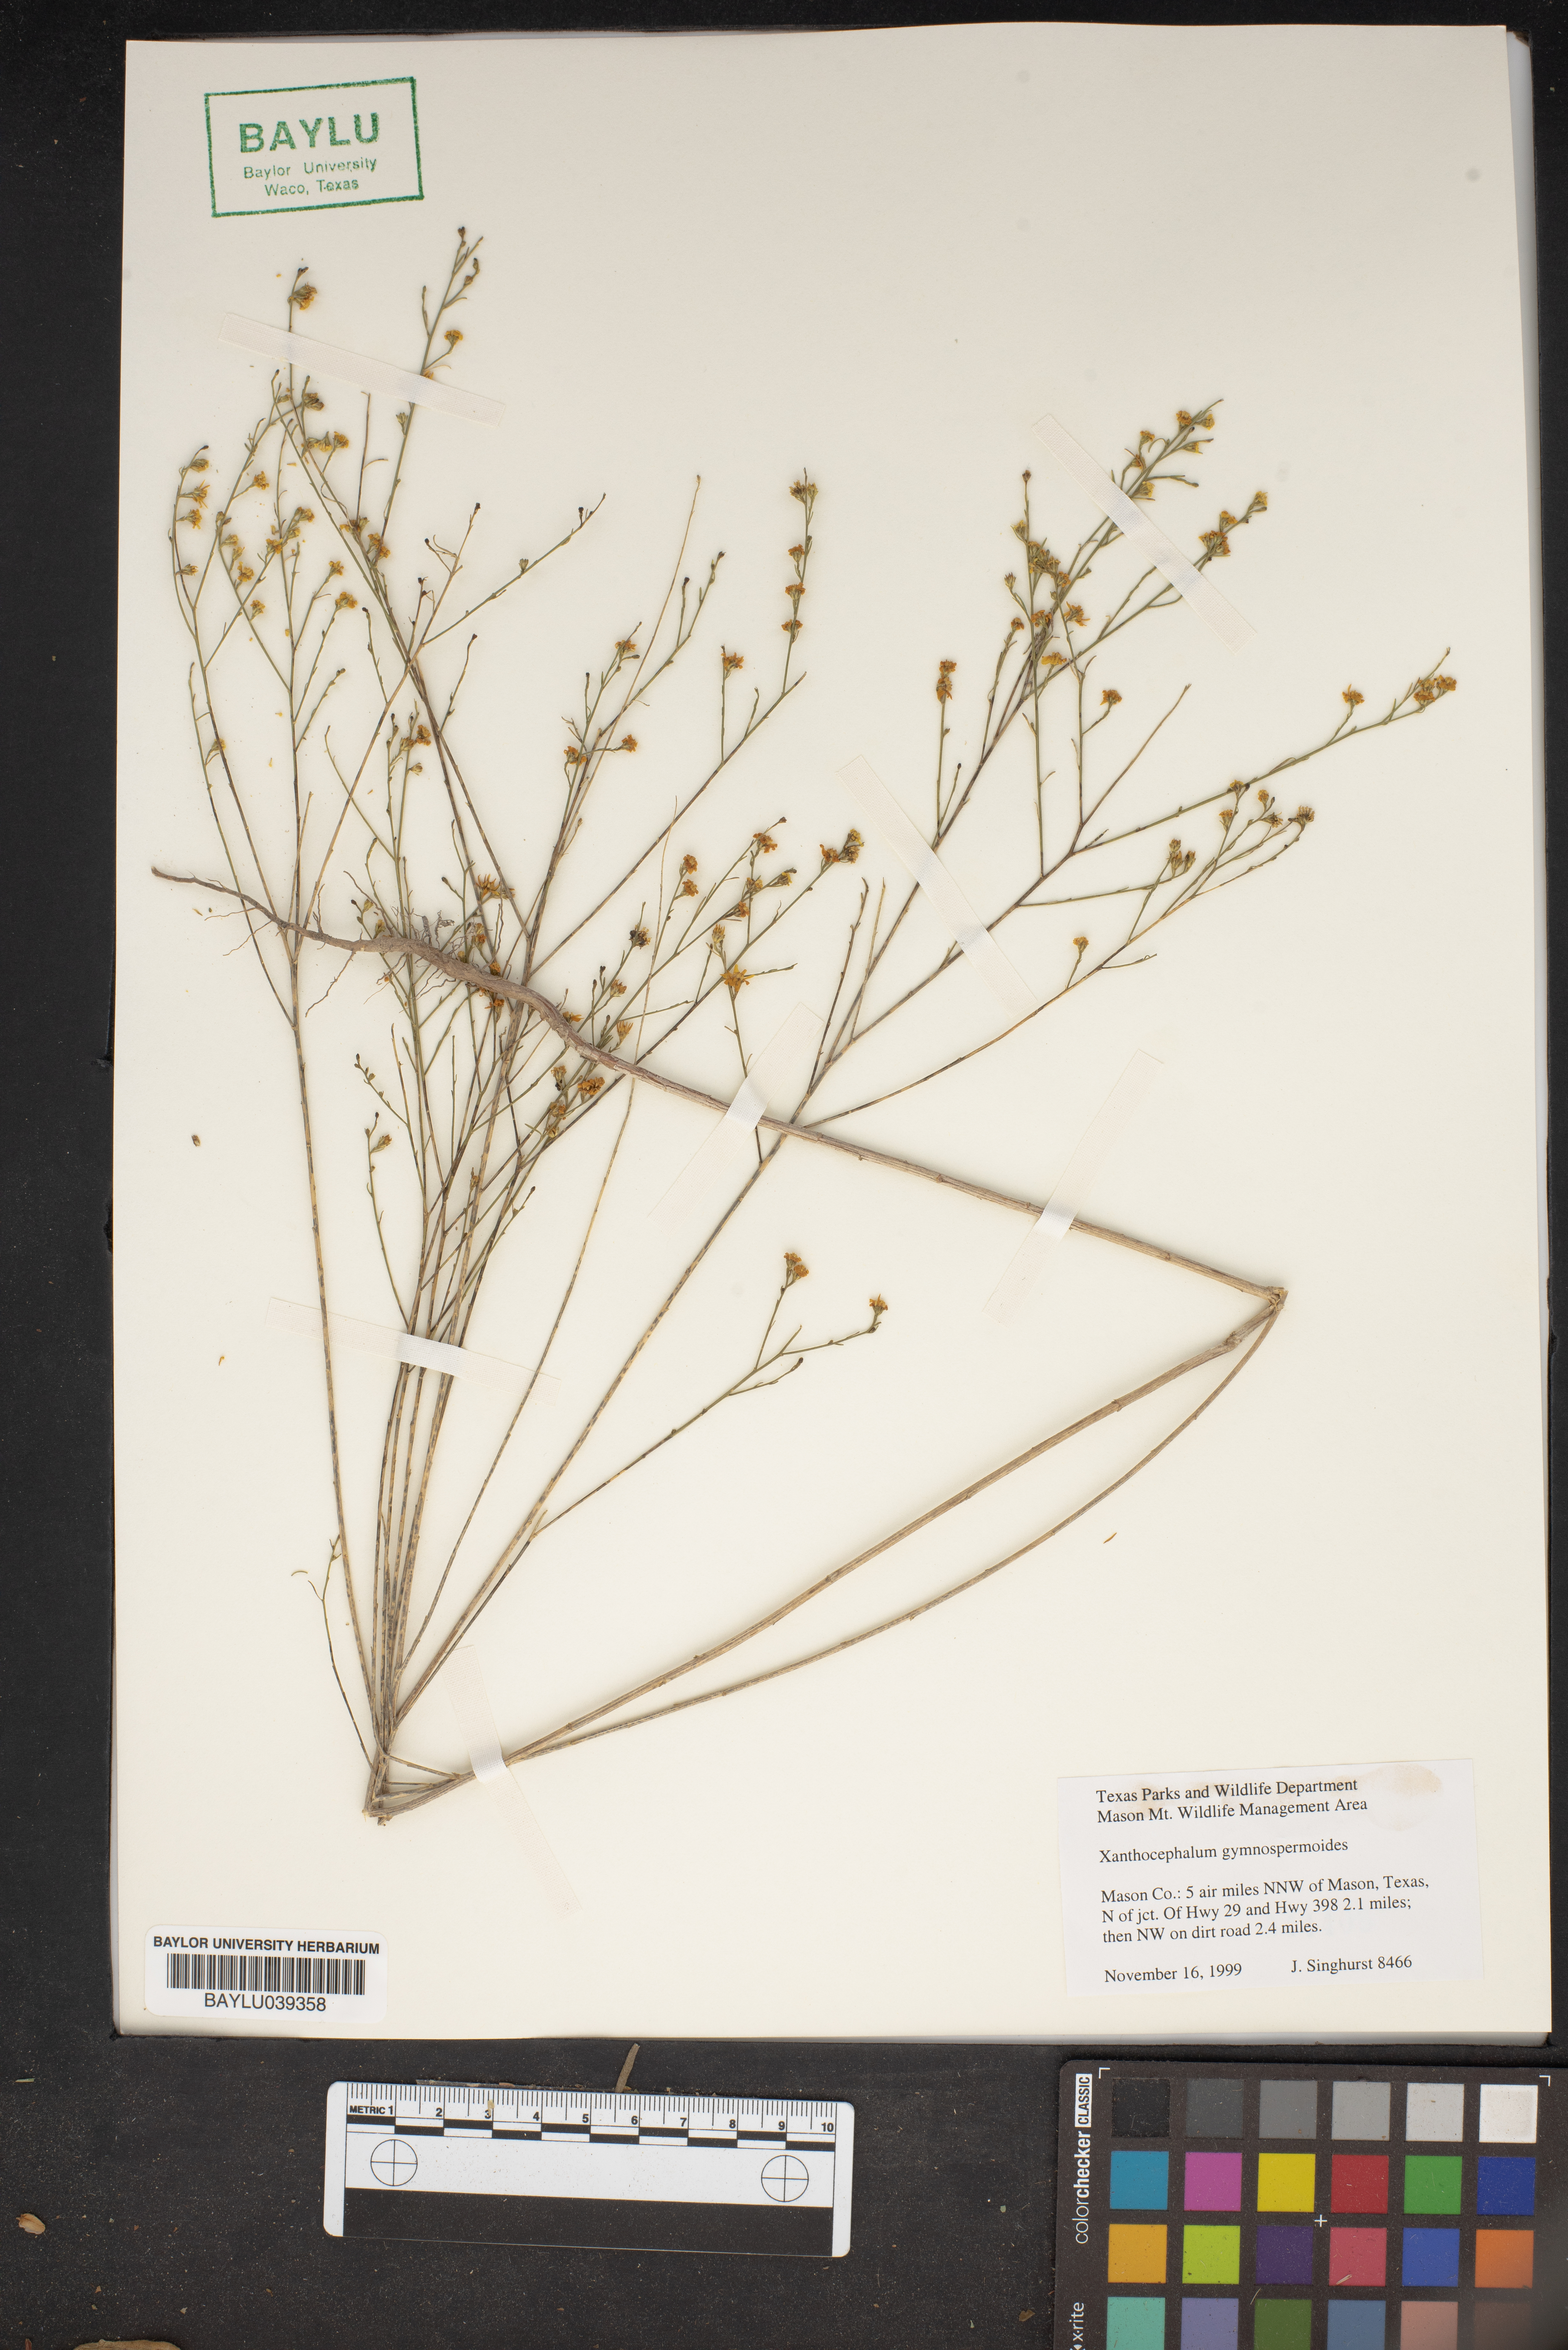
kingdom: Plantae
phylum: Tracheophyta
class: Magnoliopsida
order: Asterales
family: Asteraceae
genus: Xanthocephalum
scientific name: Xanthocephalum gymnospermoides
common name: San pedro matchweed
